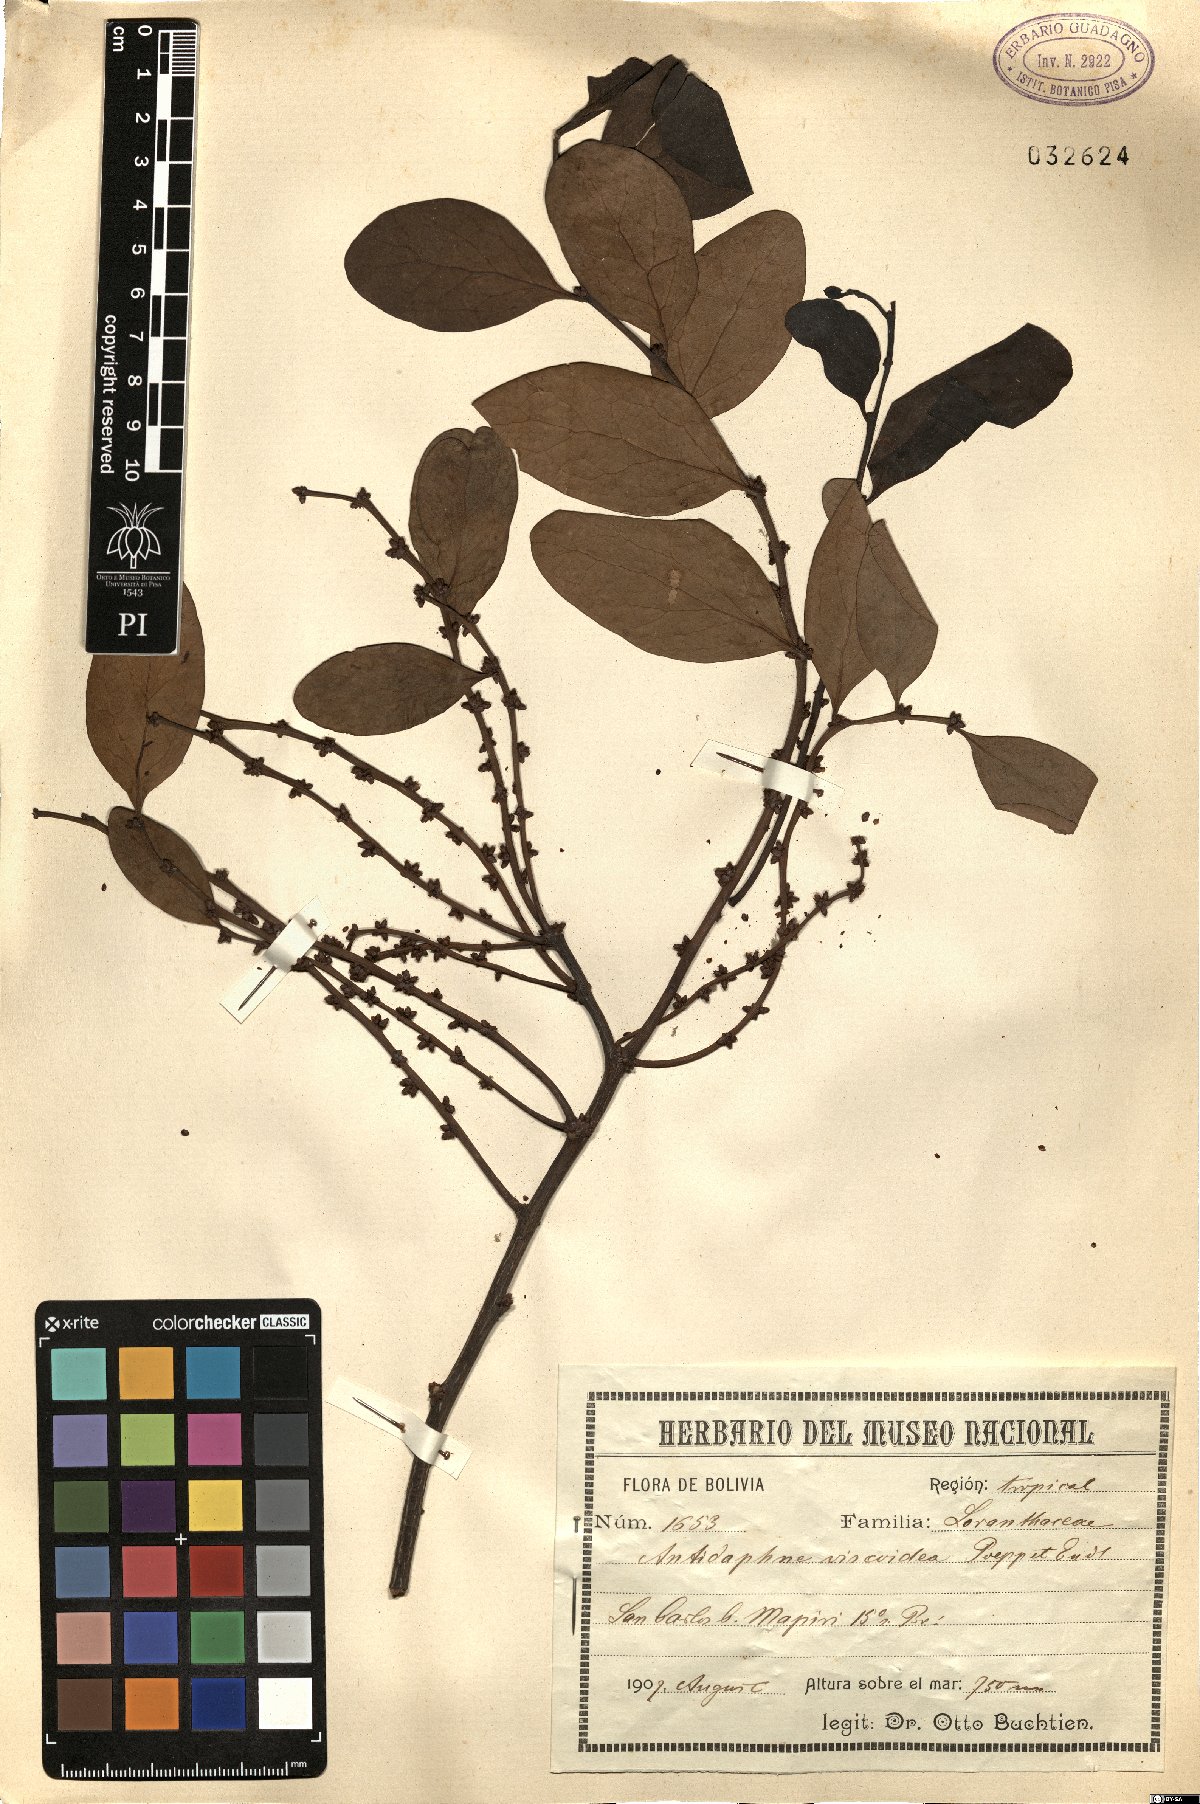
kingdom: Plantae
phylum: Tracheophyta
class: Magnoliopsida
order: Santalales
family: Santalaceae
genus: Antidaphne
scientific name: Antidaphne viscoidea
